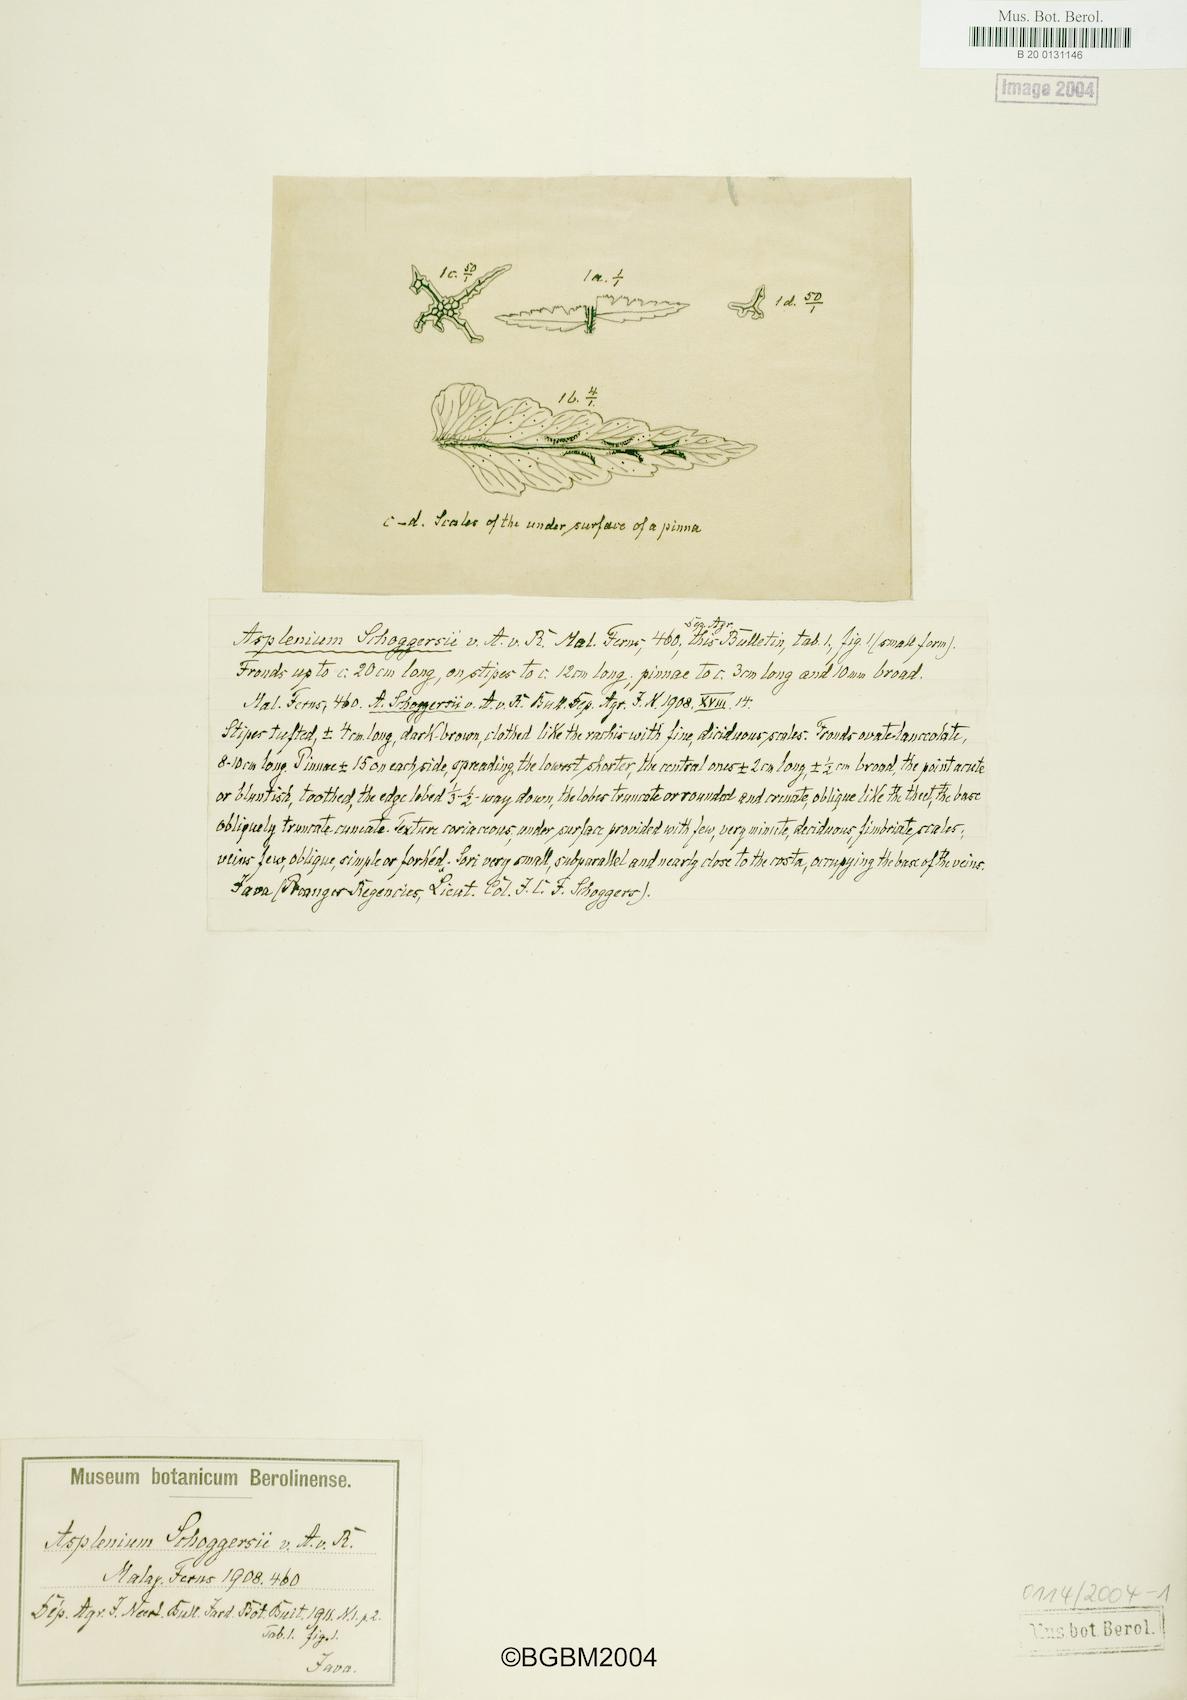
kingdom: Plantae
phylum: Tracheophyta
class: Polypodiopsida
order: Polypodiales
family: Aspleniaceae
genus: Asplenium
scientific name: Asplenium
